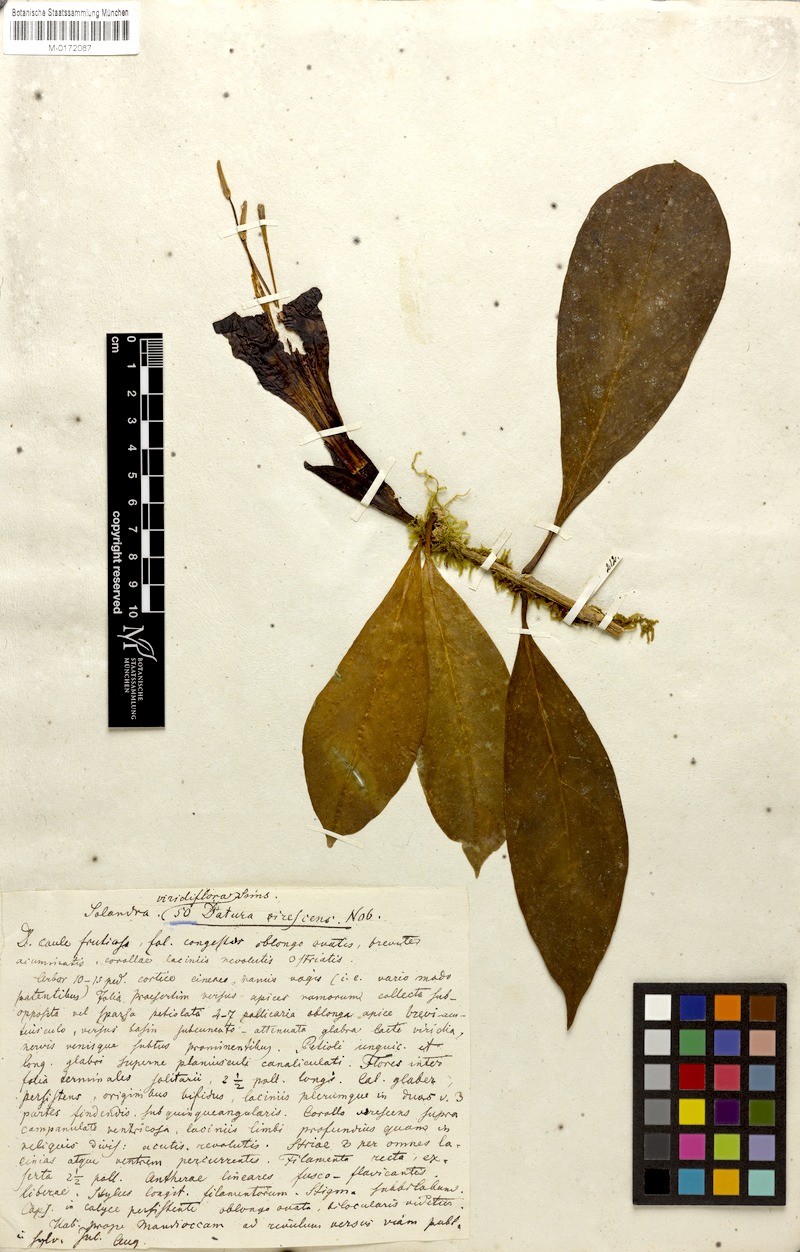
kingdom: Plantae
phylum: Tracheophyta
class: Magnoliopsida
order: Solanales
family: Solanaceae
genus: Dyssochroma
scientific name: Dyssochroma viridiflorum
